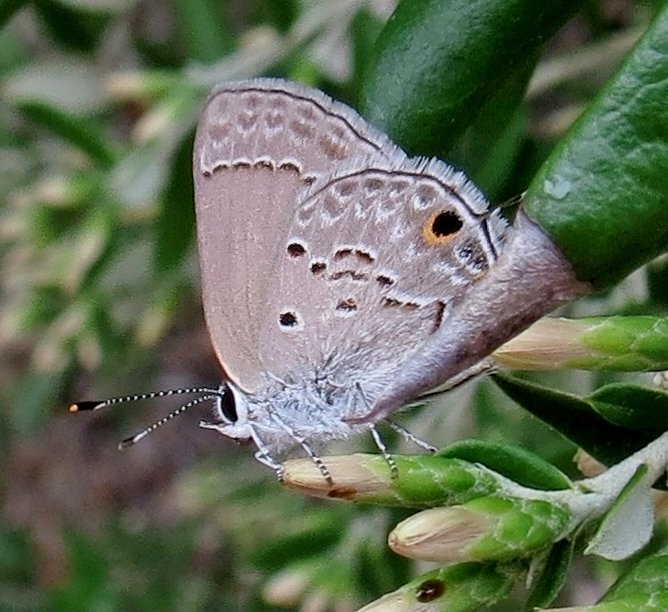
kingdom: Animalia
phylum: Arthropoda
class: Insecta
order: Lepidoptera
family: Lycaenidae
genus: Callicista
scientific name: Callicista columella
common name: Mallow Scrub-Hairstreak
